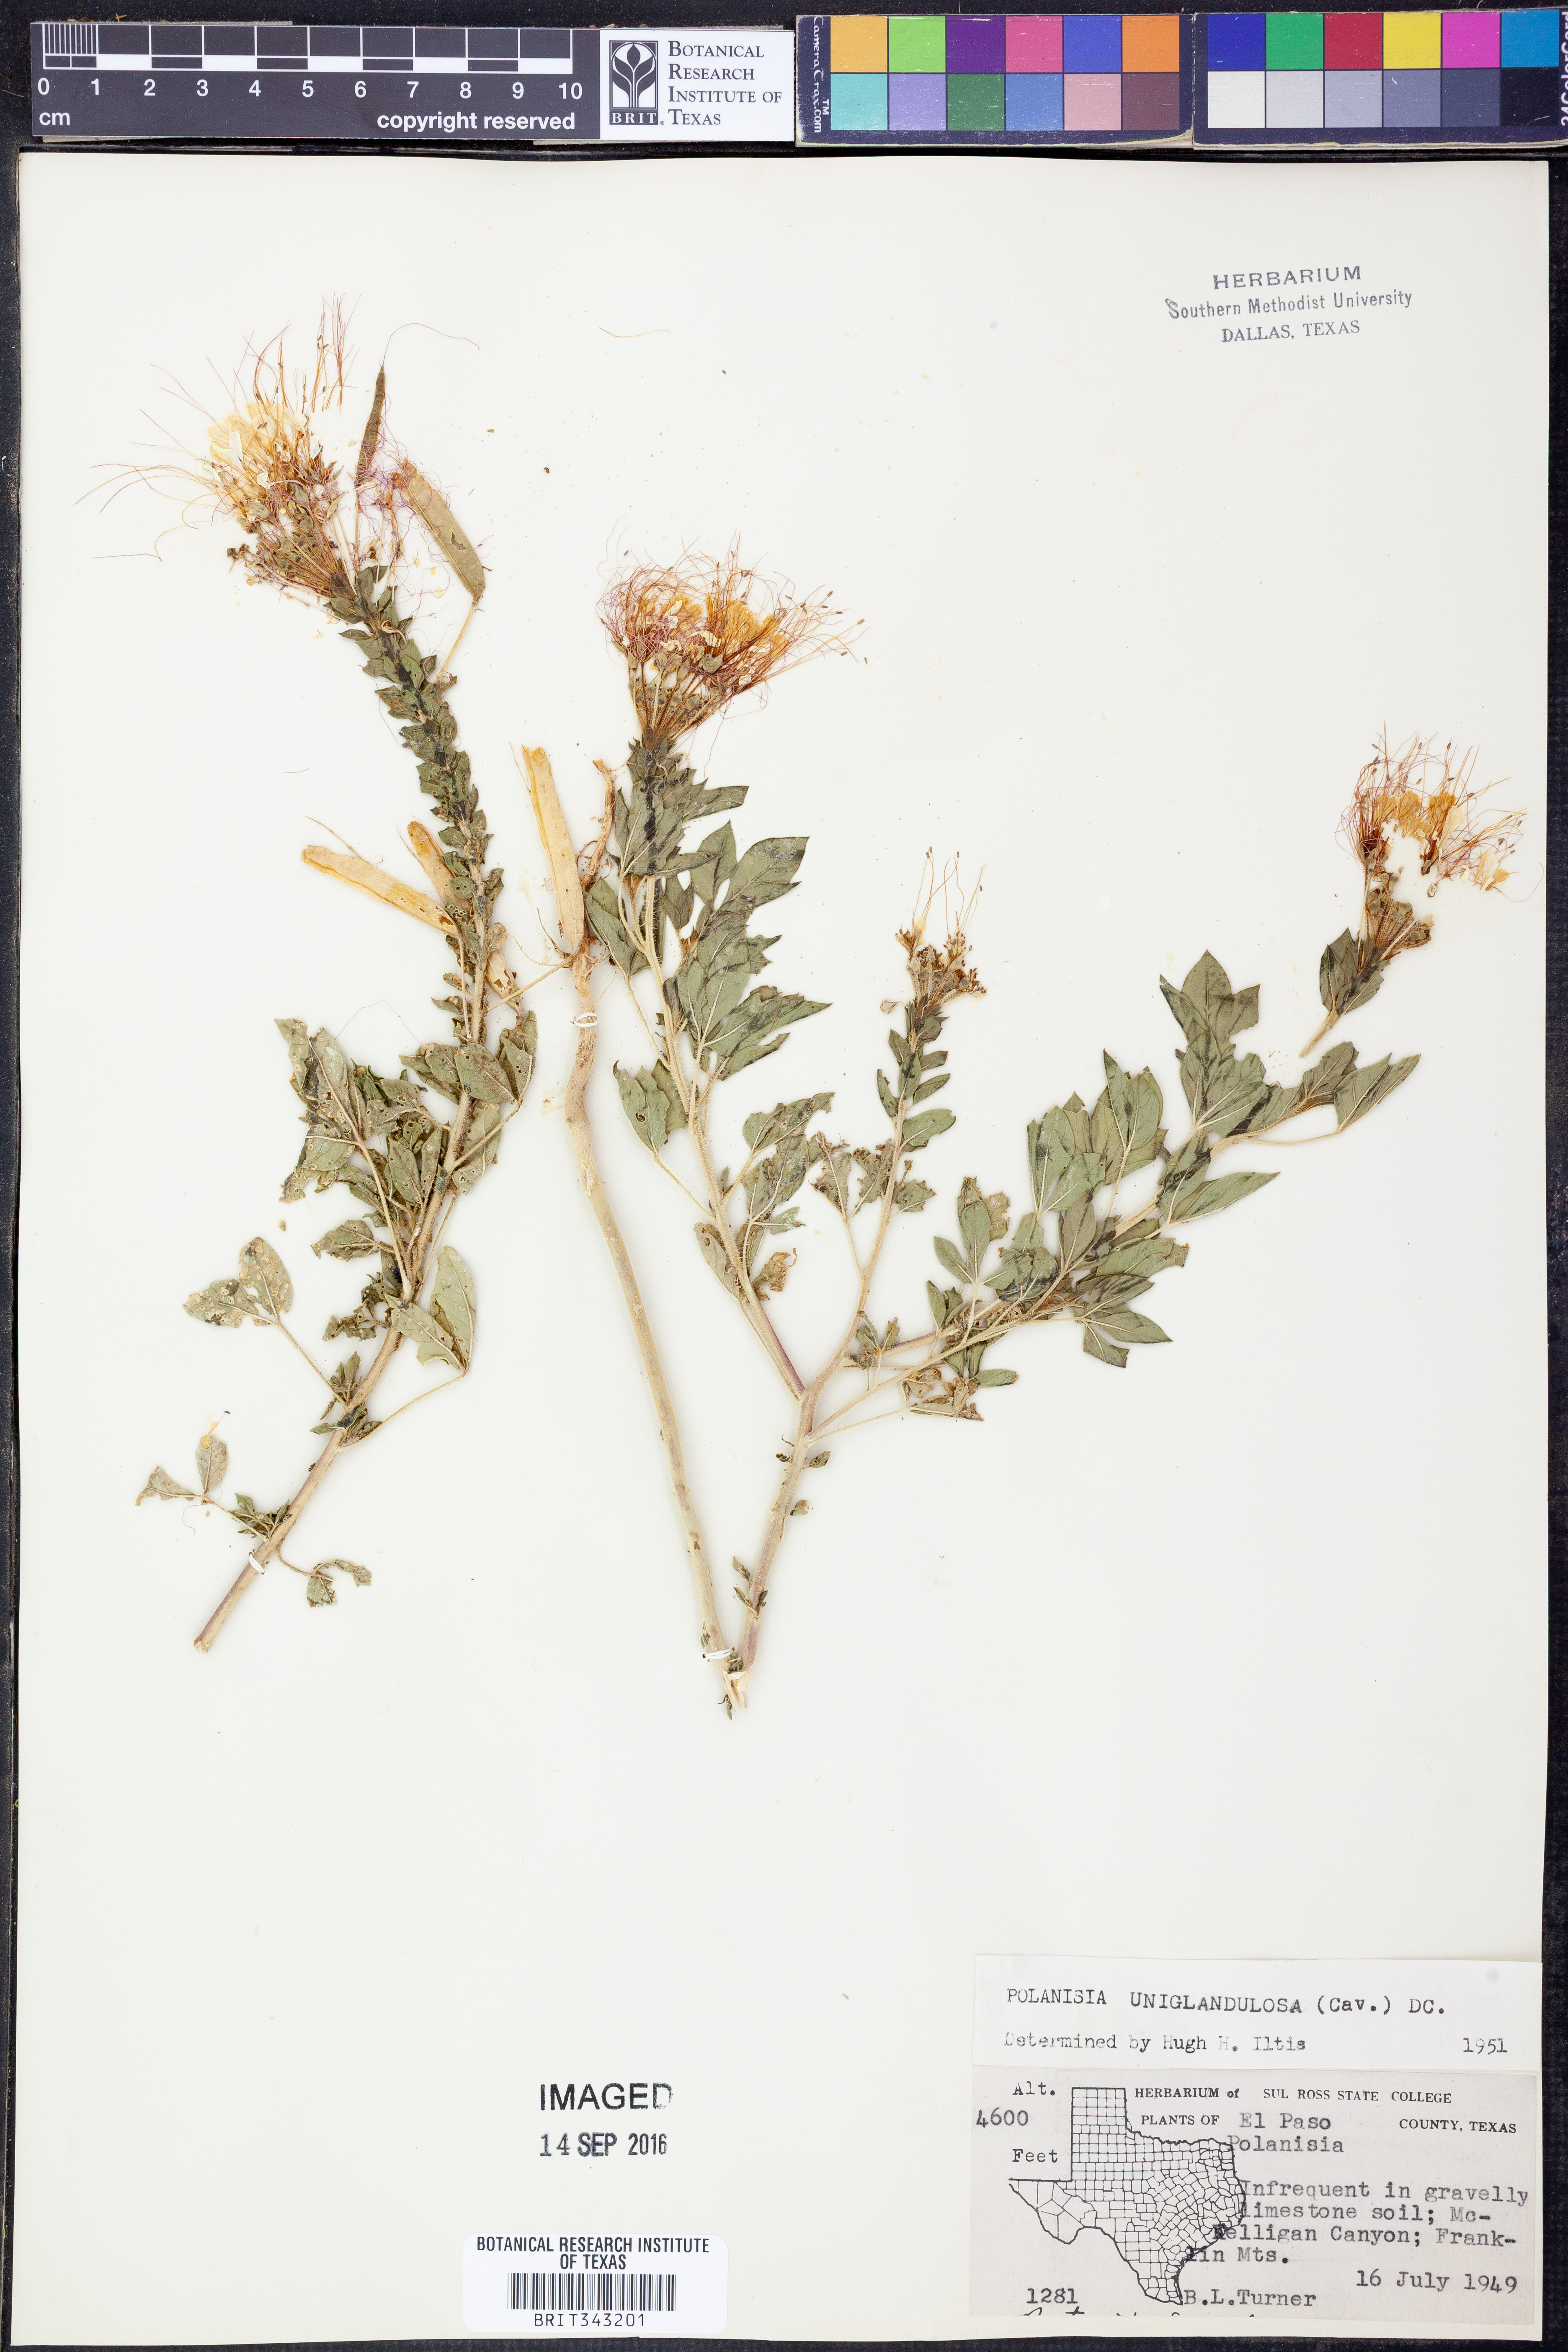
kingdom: Plantae
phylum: Tracheophyta
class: Magnoliopsida
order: Brassicales
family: Cleomaceae
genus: Polanisia
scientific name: Polanisia uniglandulosa
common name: Mexican clammyweed
